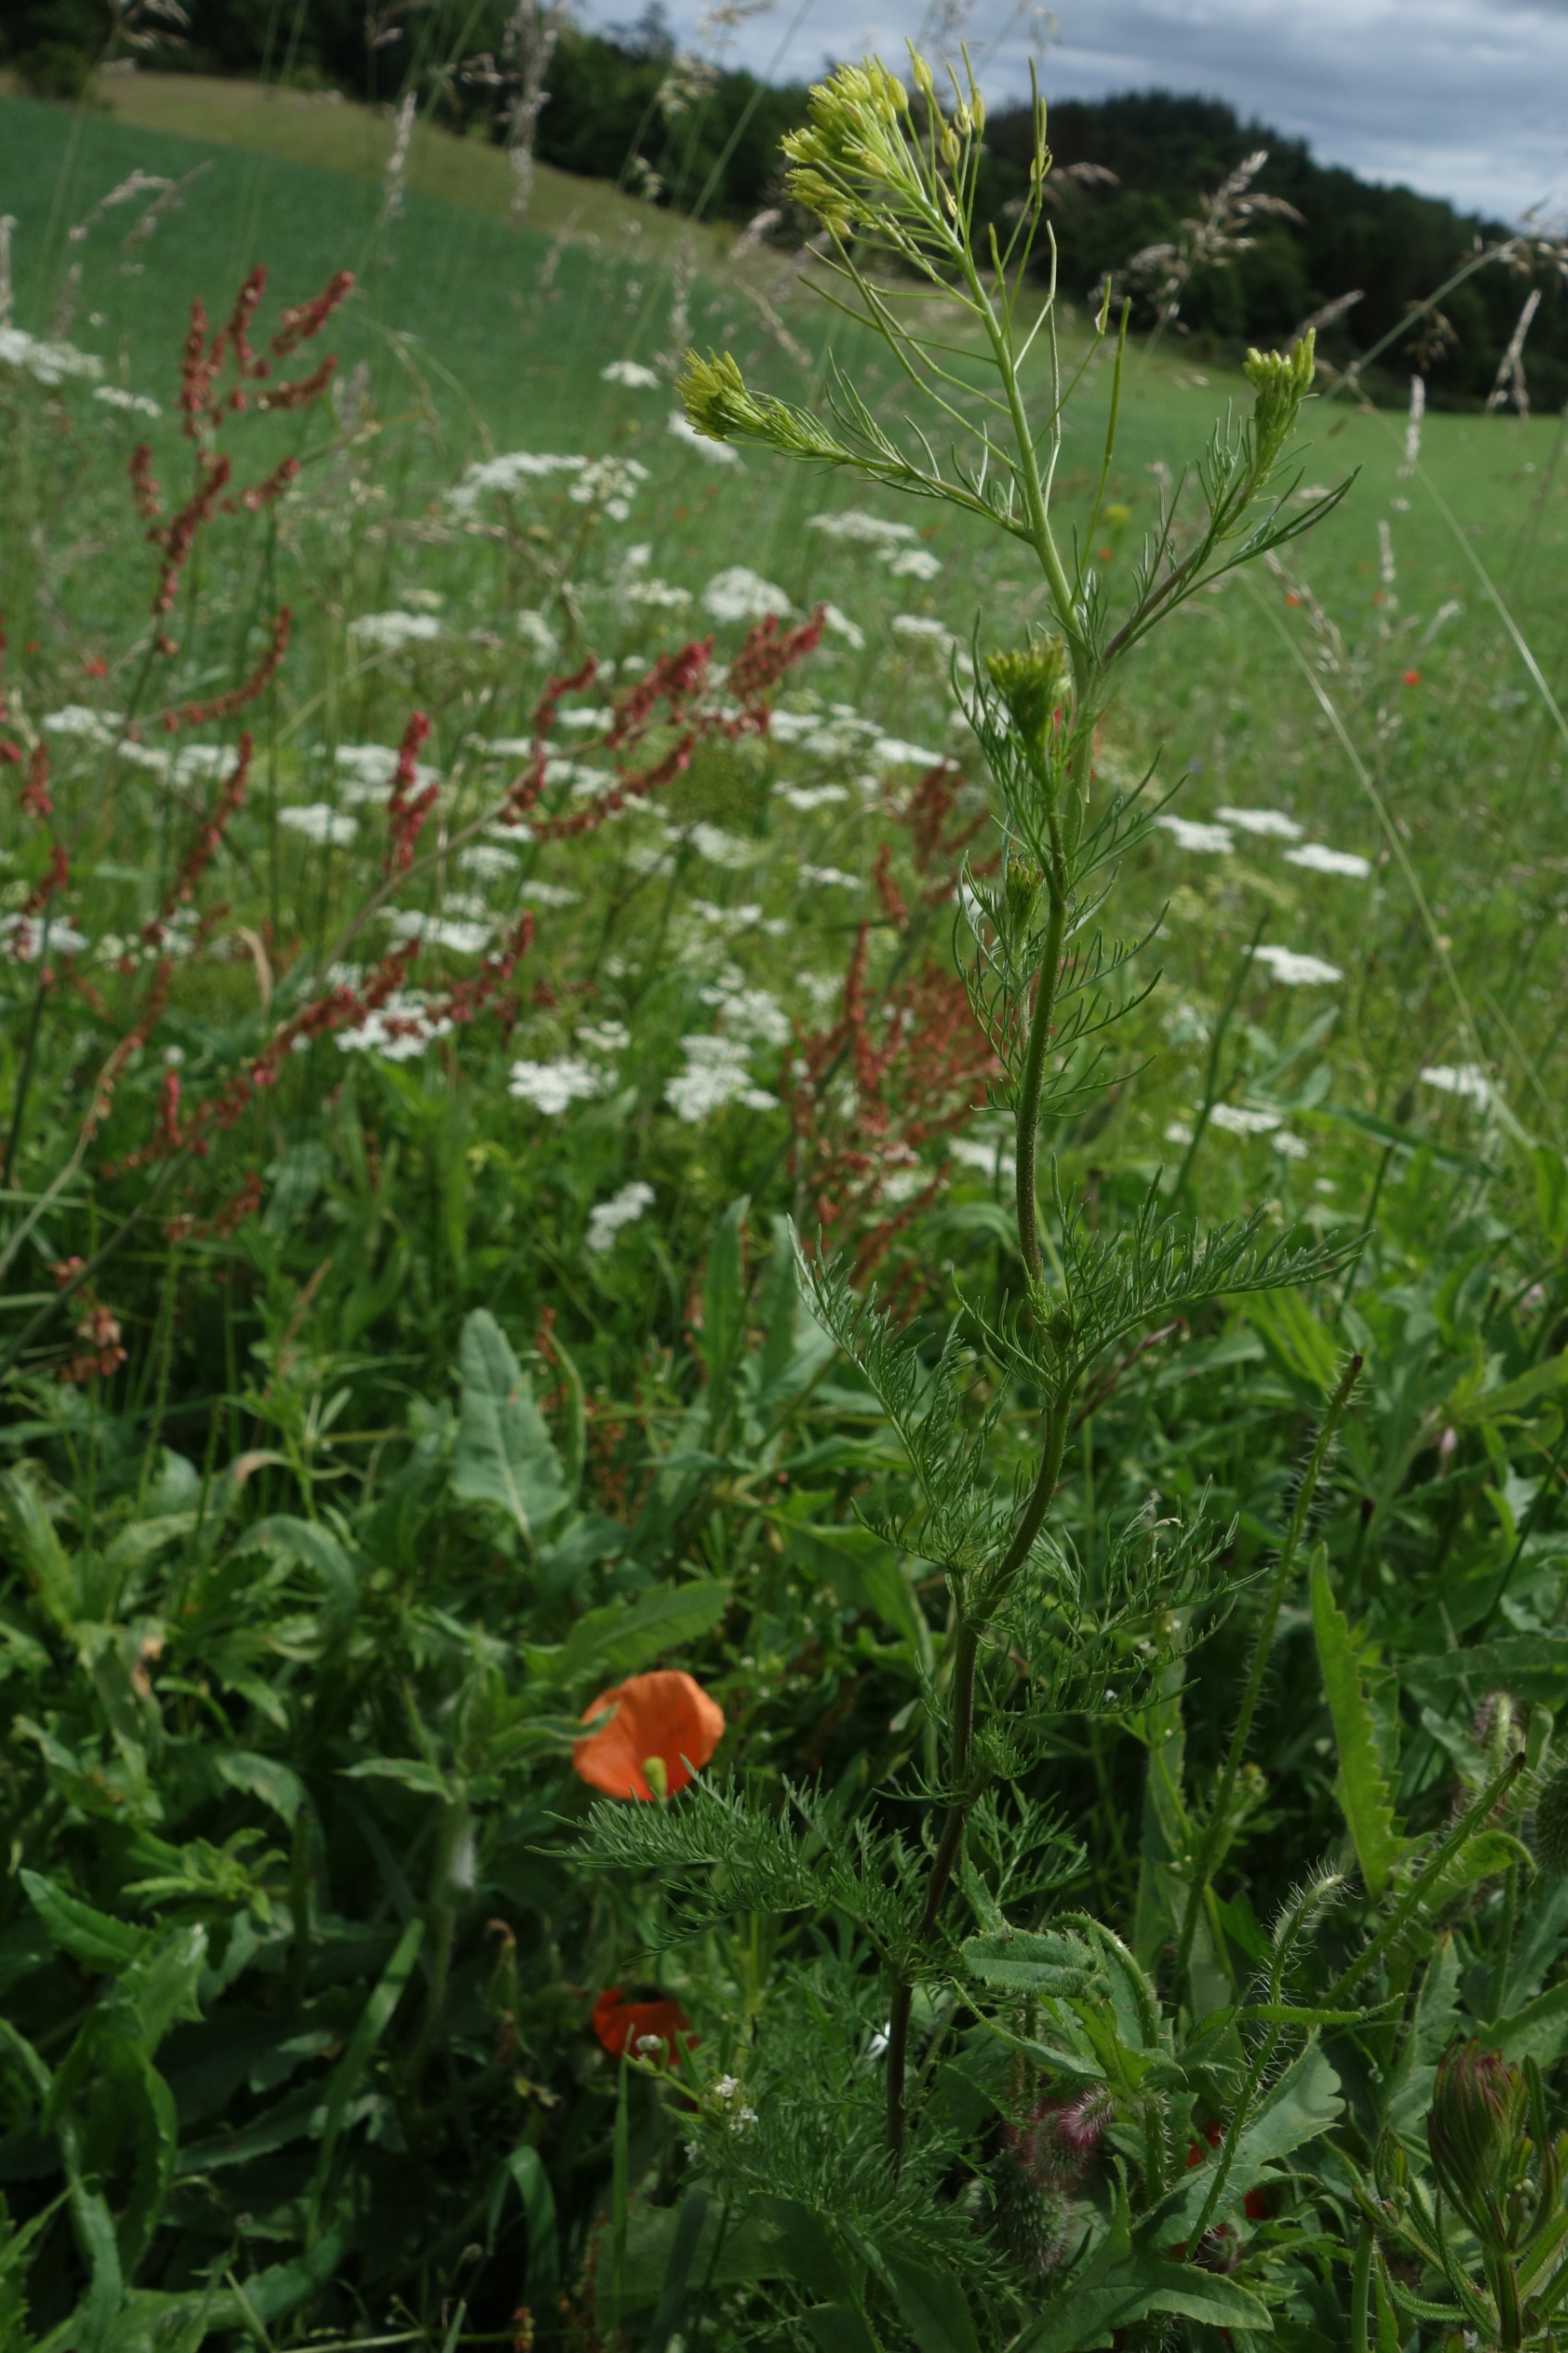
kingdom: Plantae
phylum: Tracheophyta
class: Magnoliopsida
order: Brassicales
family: Brassicaceae
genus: Descurainia
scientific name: Descurainia sophia
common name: Finbladet vejsennep
